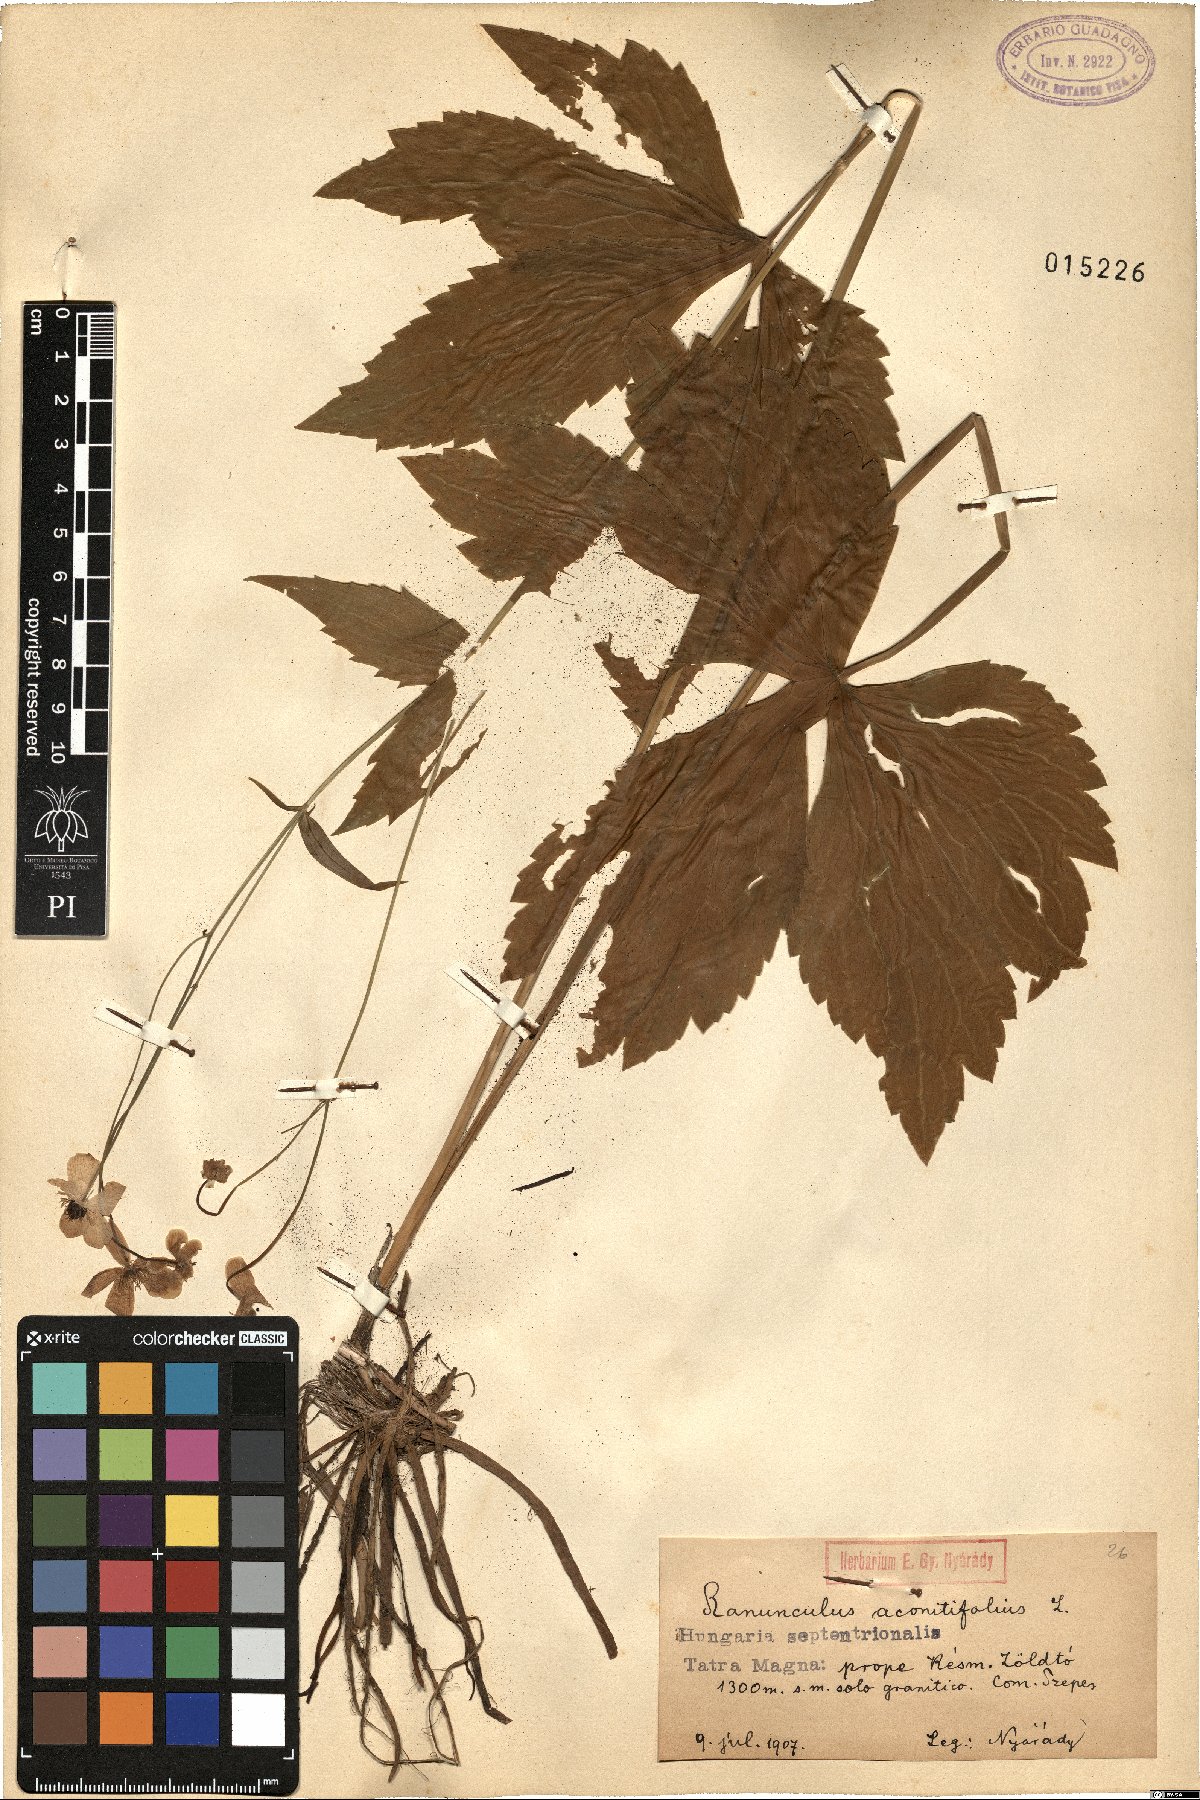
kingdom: Plantae
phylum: Tracheophyta
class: Magnoliopsida
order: Ranunculales
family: Ranunculaceae
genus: Ranunculus
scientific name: Ranunculus aconitifolius
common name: Aconite-leaved buttercup
